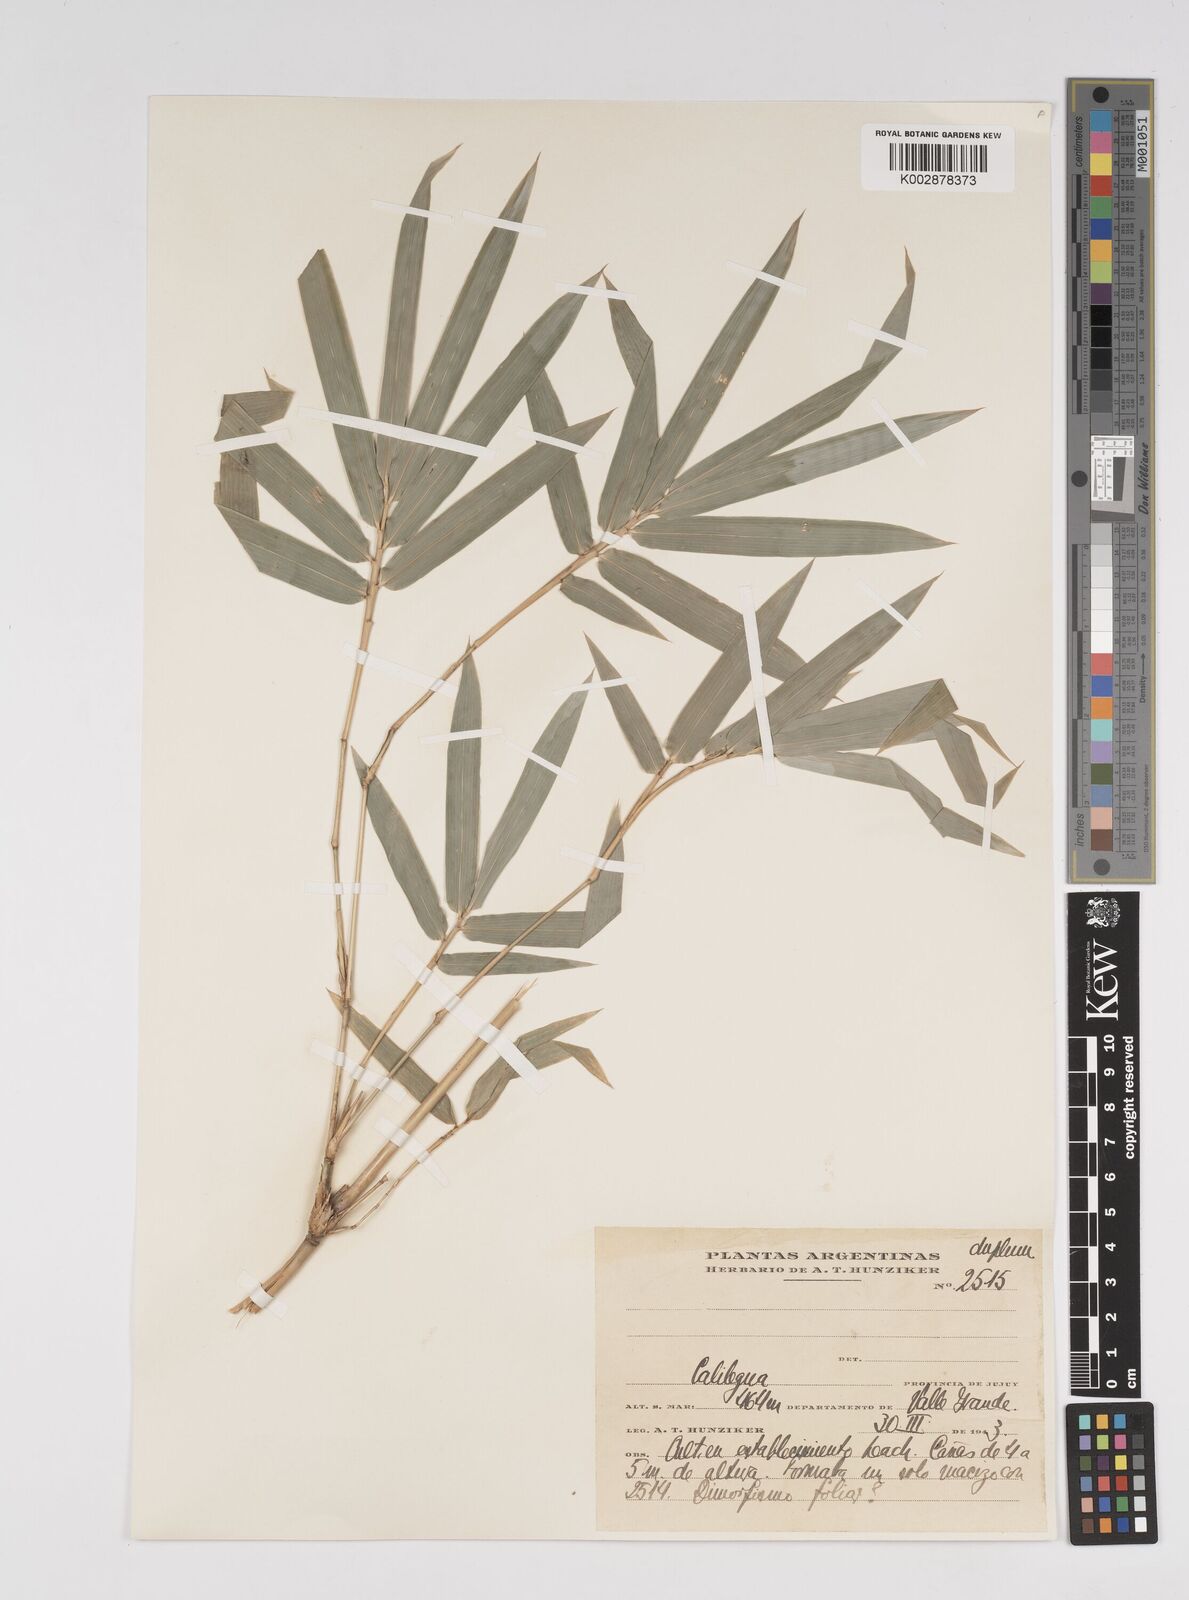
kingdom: Plantae
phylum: Tracheophyta
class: Liliopsida
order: Poales
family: Poaceae
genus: Bambusa
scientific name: Bambusa multiplex
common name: Hedge bamboo
